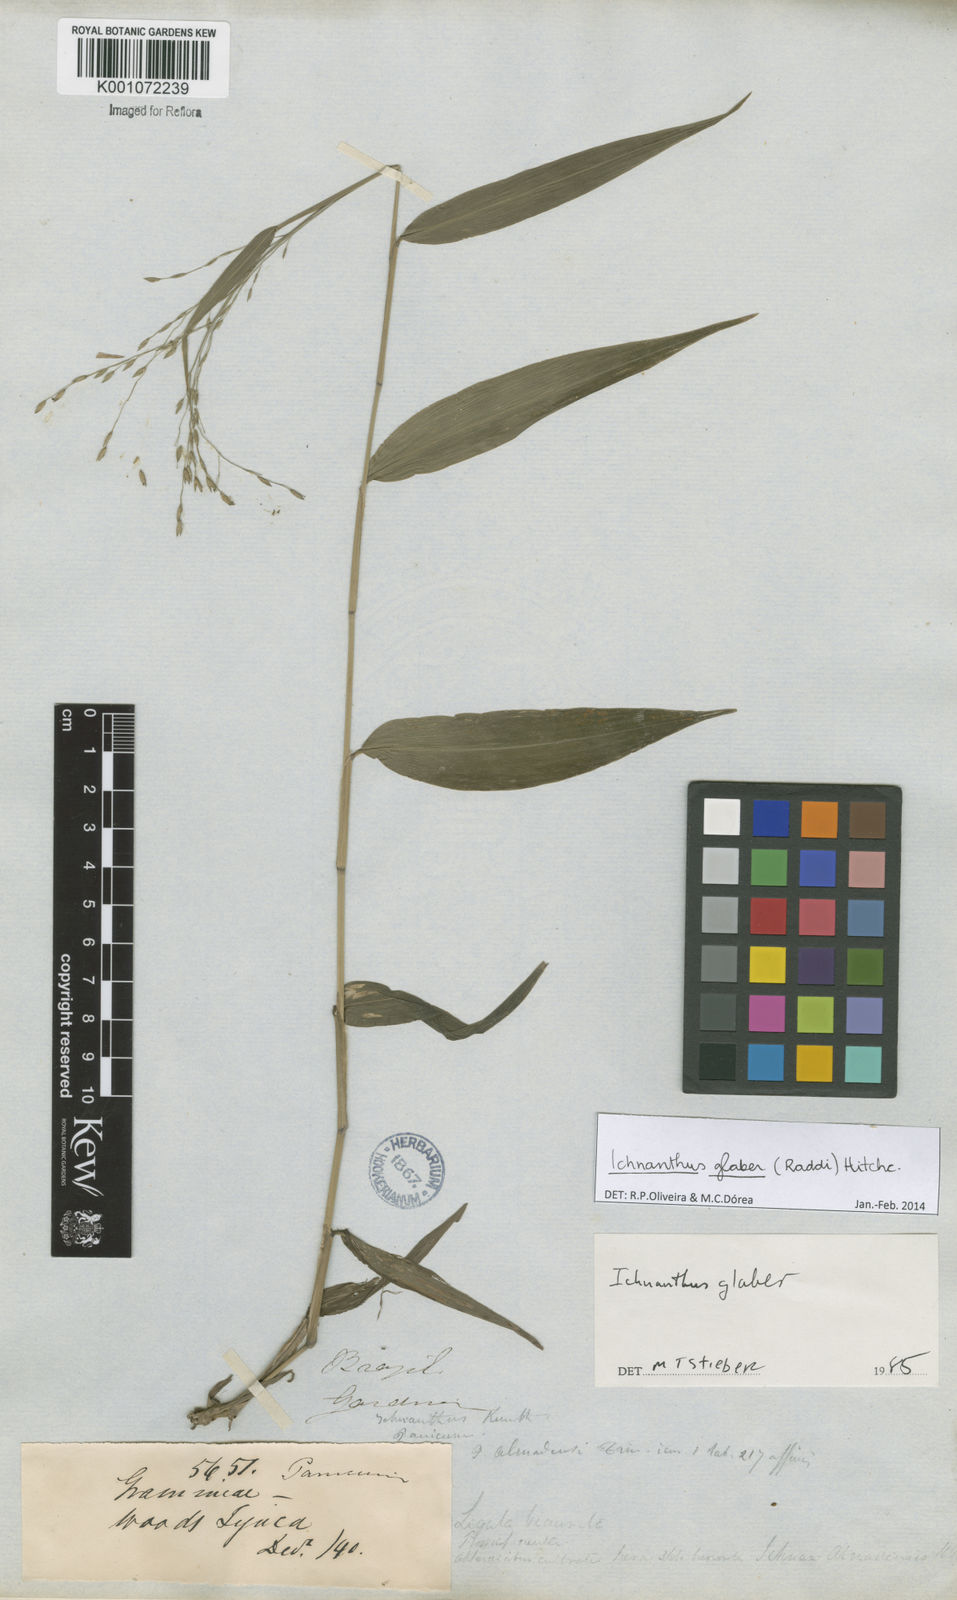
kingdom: Plantae
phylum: Tracheophyta
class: Liliopsida
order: Poales
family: Poaceae
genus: Ichnanthus
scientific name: Ichnanthus glaber
